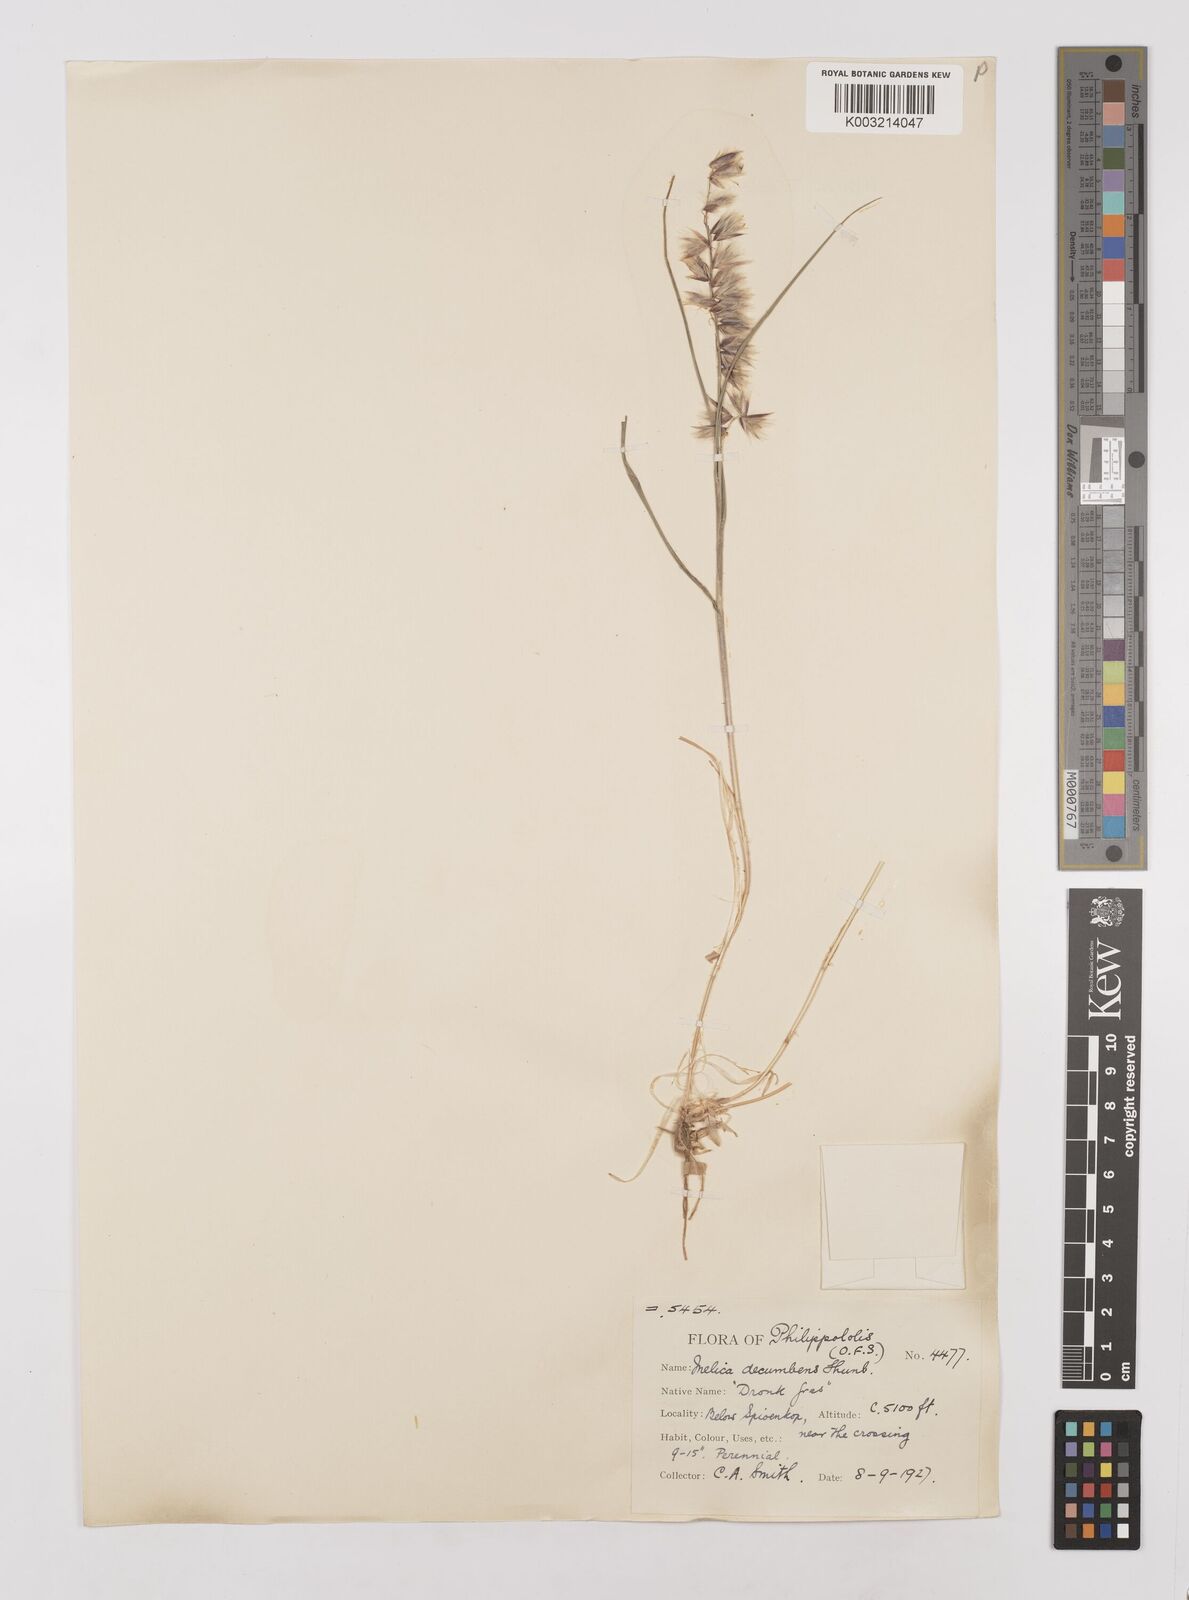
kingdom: Plantae
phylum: Tracheophyta
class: Liliopsida
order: Poales
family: Poaceae
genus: Melica
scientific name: Melica dendroides
